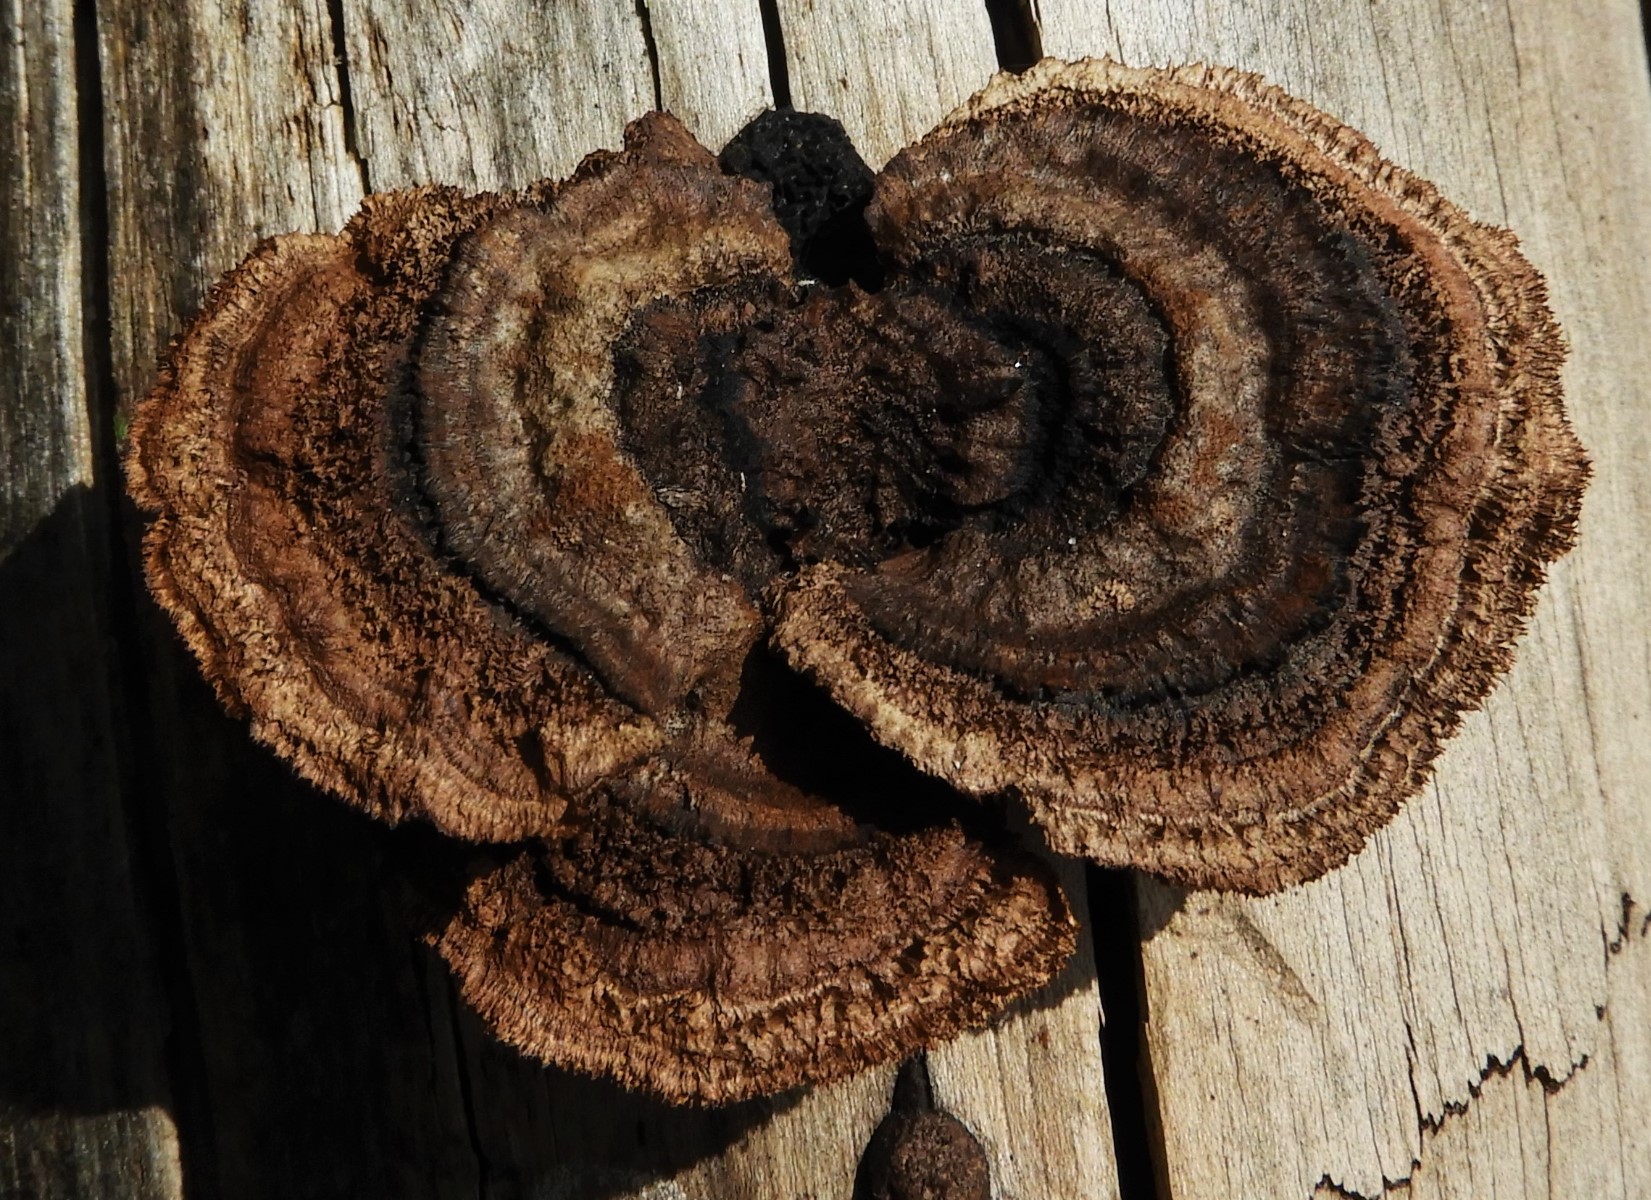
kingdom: Fungi
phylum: Basidiomycota
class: Agaricomycetes
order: Gloeophyllales
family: Gloeophyllaceae
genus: Gloeophyllum
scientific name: Gloeophyllum sepiarium
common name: fyrre-korkhat
